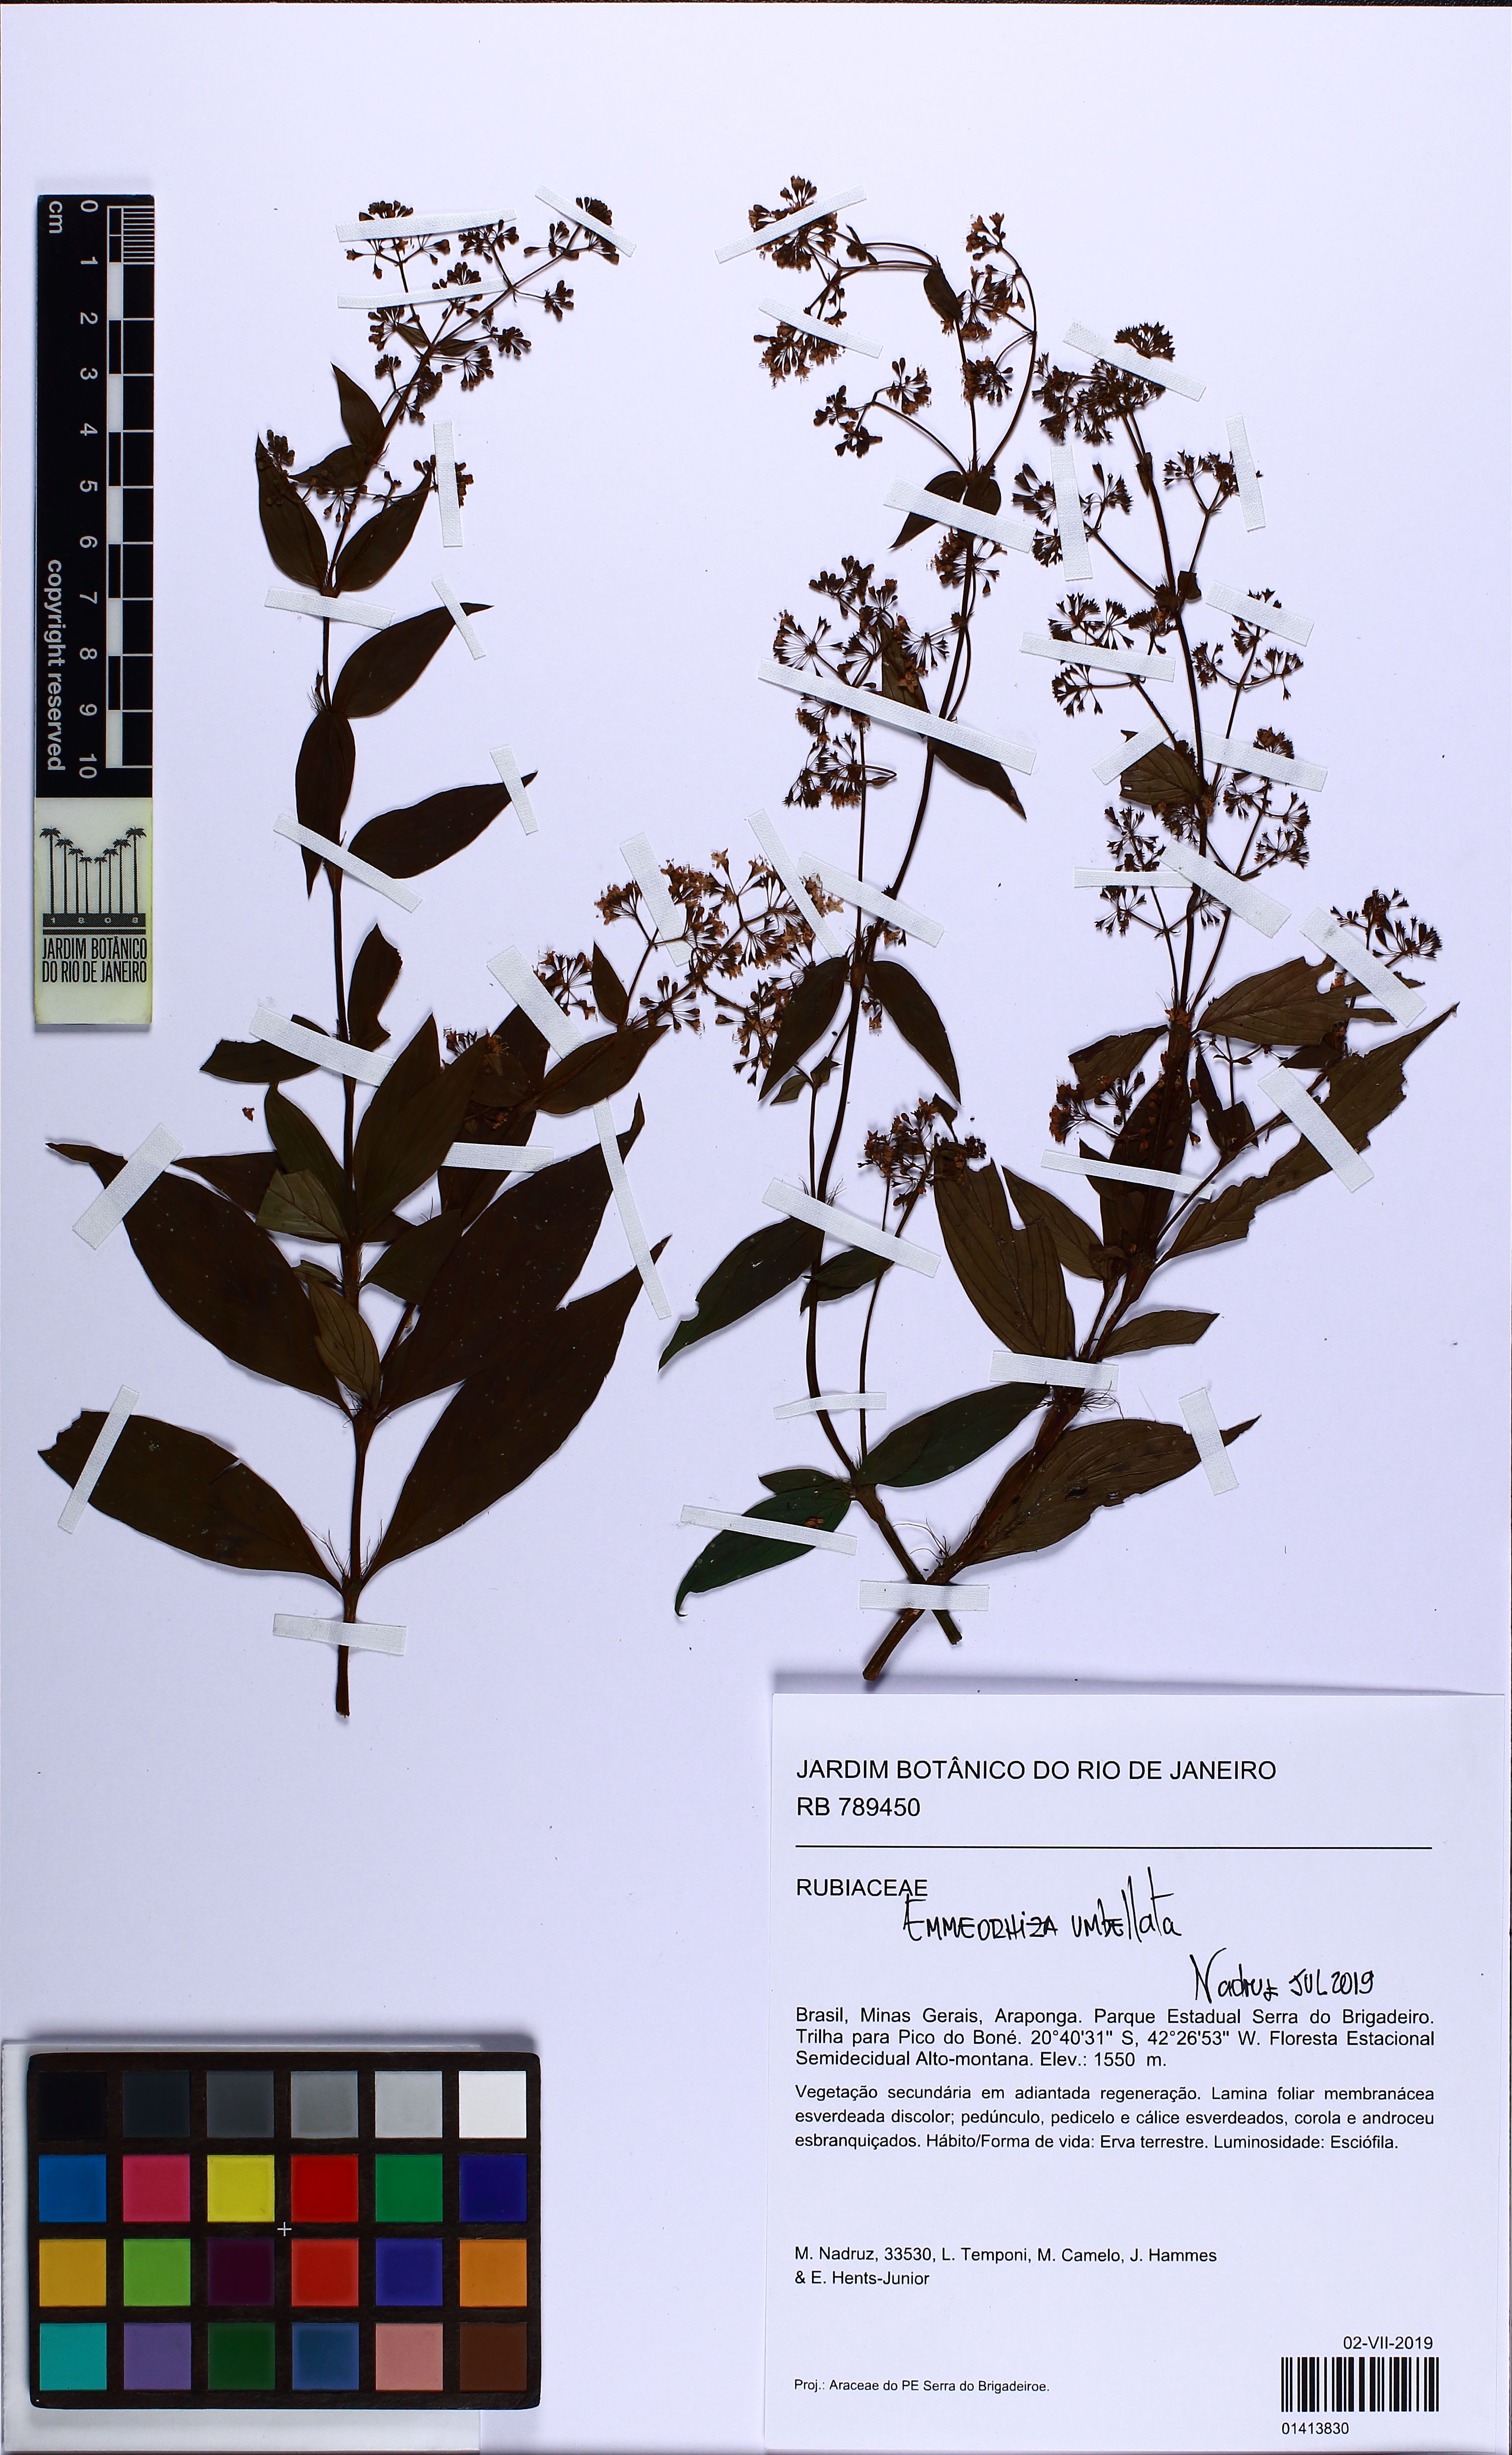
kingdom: Plantae
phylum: Tracheophyta
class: Magnoliopsida
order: Gentianales
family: Rubiaceae
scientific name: Rubiaceae
